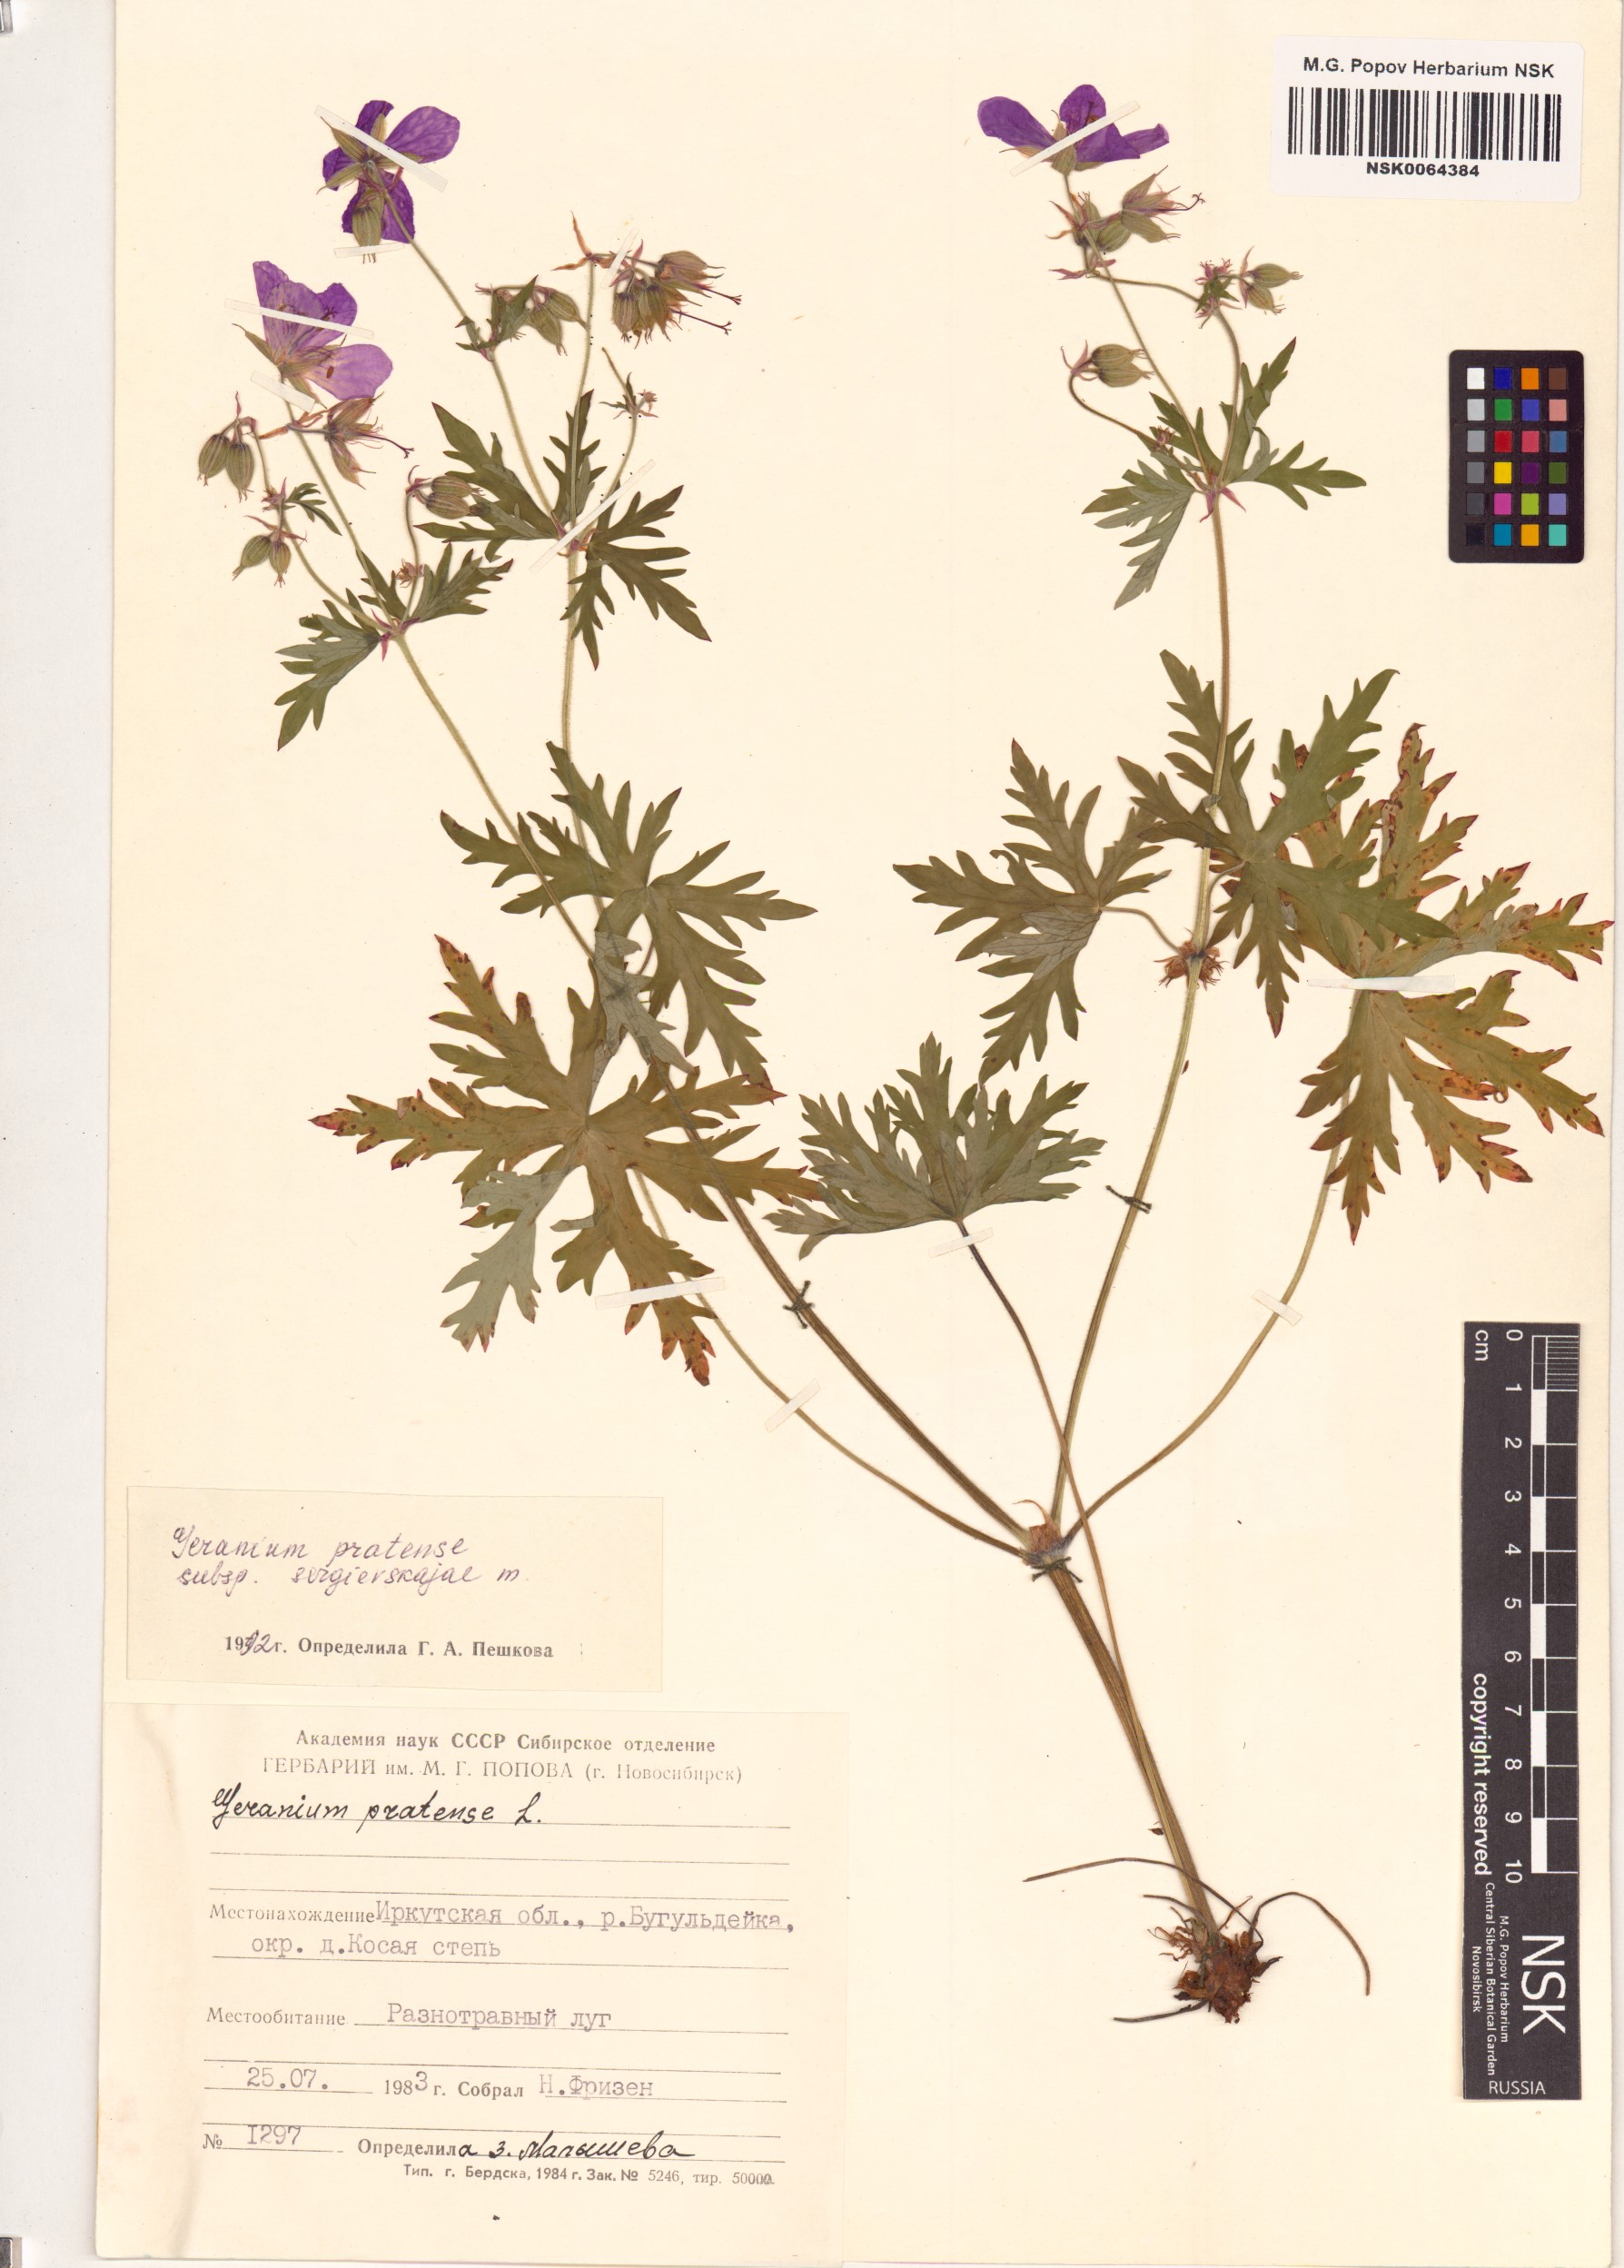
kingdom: Plantae
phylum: Tracheophyta
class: Magnoliopsida
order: Geraniales
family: Geraniaceae
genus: Geranium
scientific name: Geranium pratense
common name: Meadow crane's-bill
